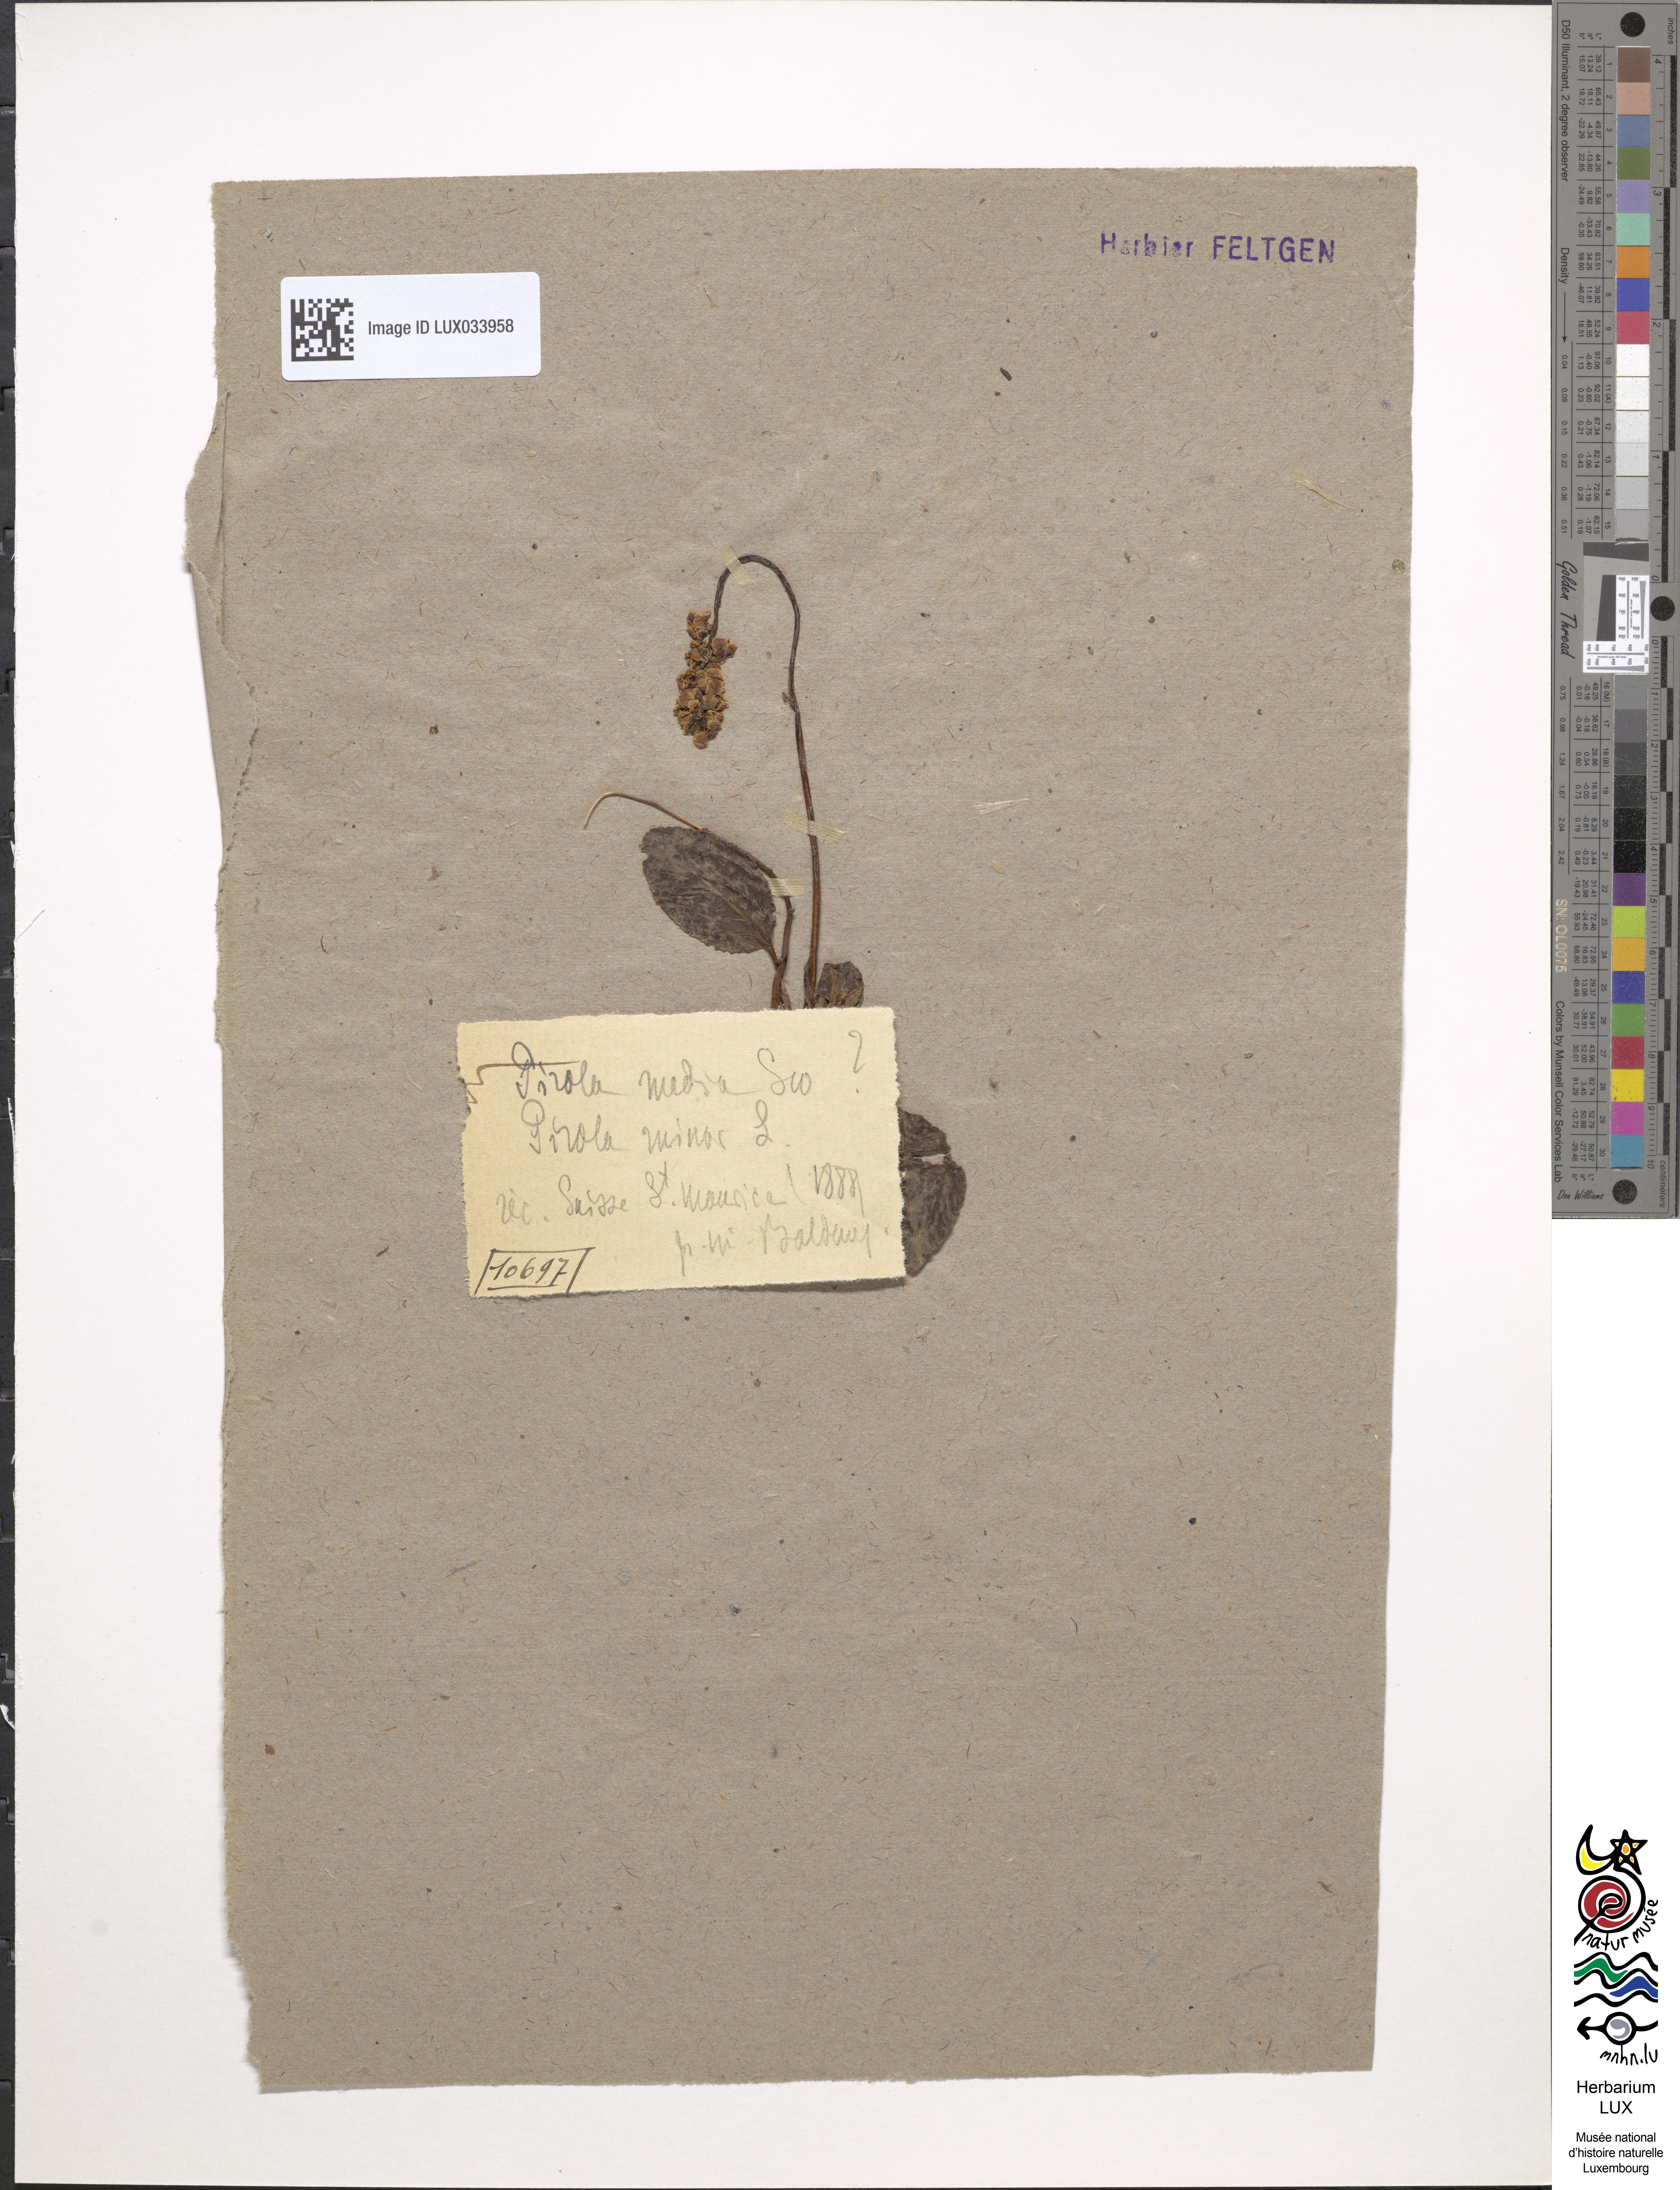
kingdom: Plantae
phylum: Tracheophyta
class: Magnoliopsida
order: Ericales
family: Ericaceae
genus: Pyrola
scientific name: Pyrola minor
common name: Common wintergreen
